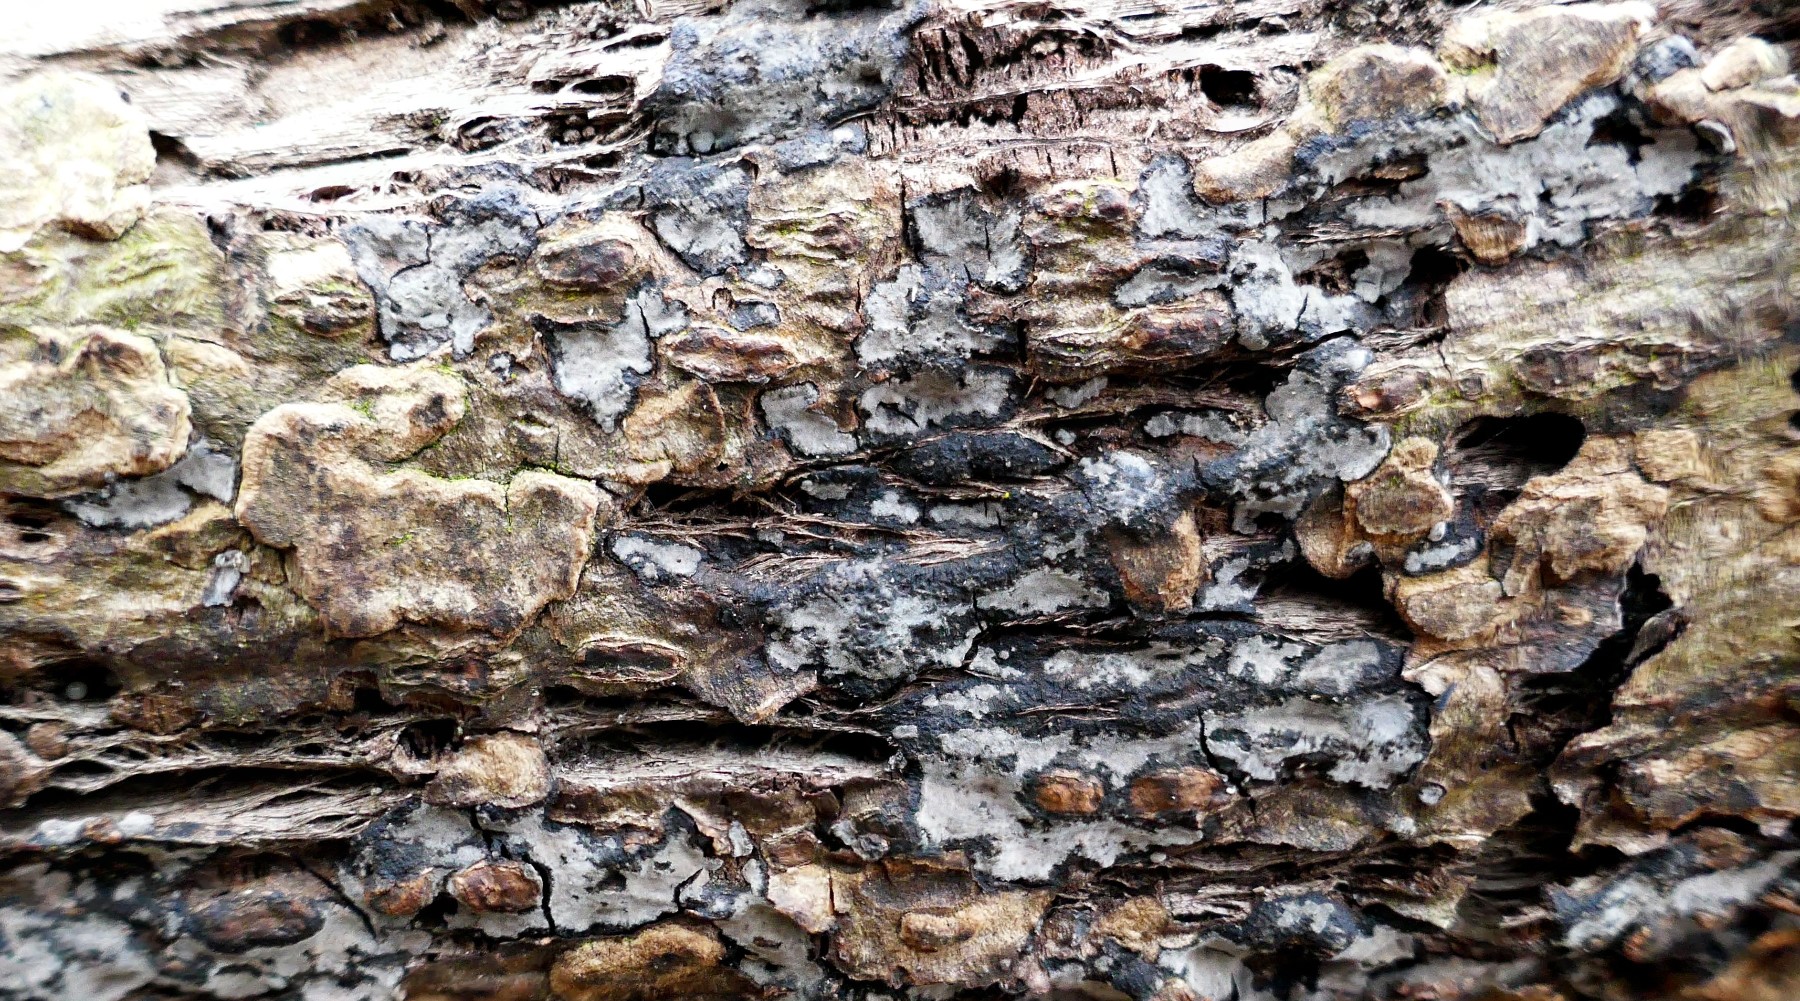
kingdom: Fungi
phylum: Basidiomycota
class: Agaricomycetes
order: Russulales
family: Peniophoraceae
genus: Peniophora
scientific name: Peniophora rufomarginata
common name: linde-voksskind
